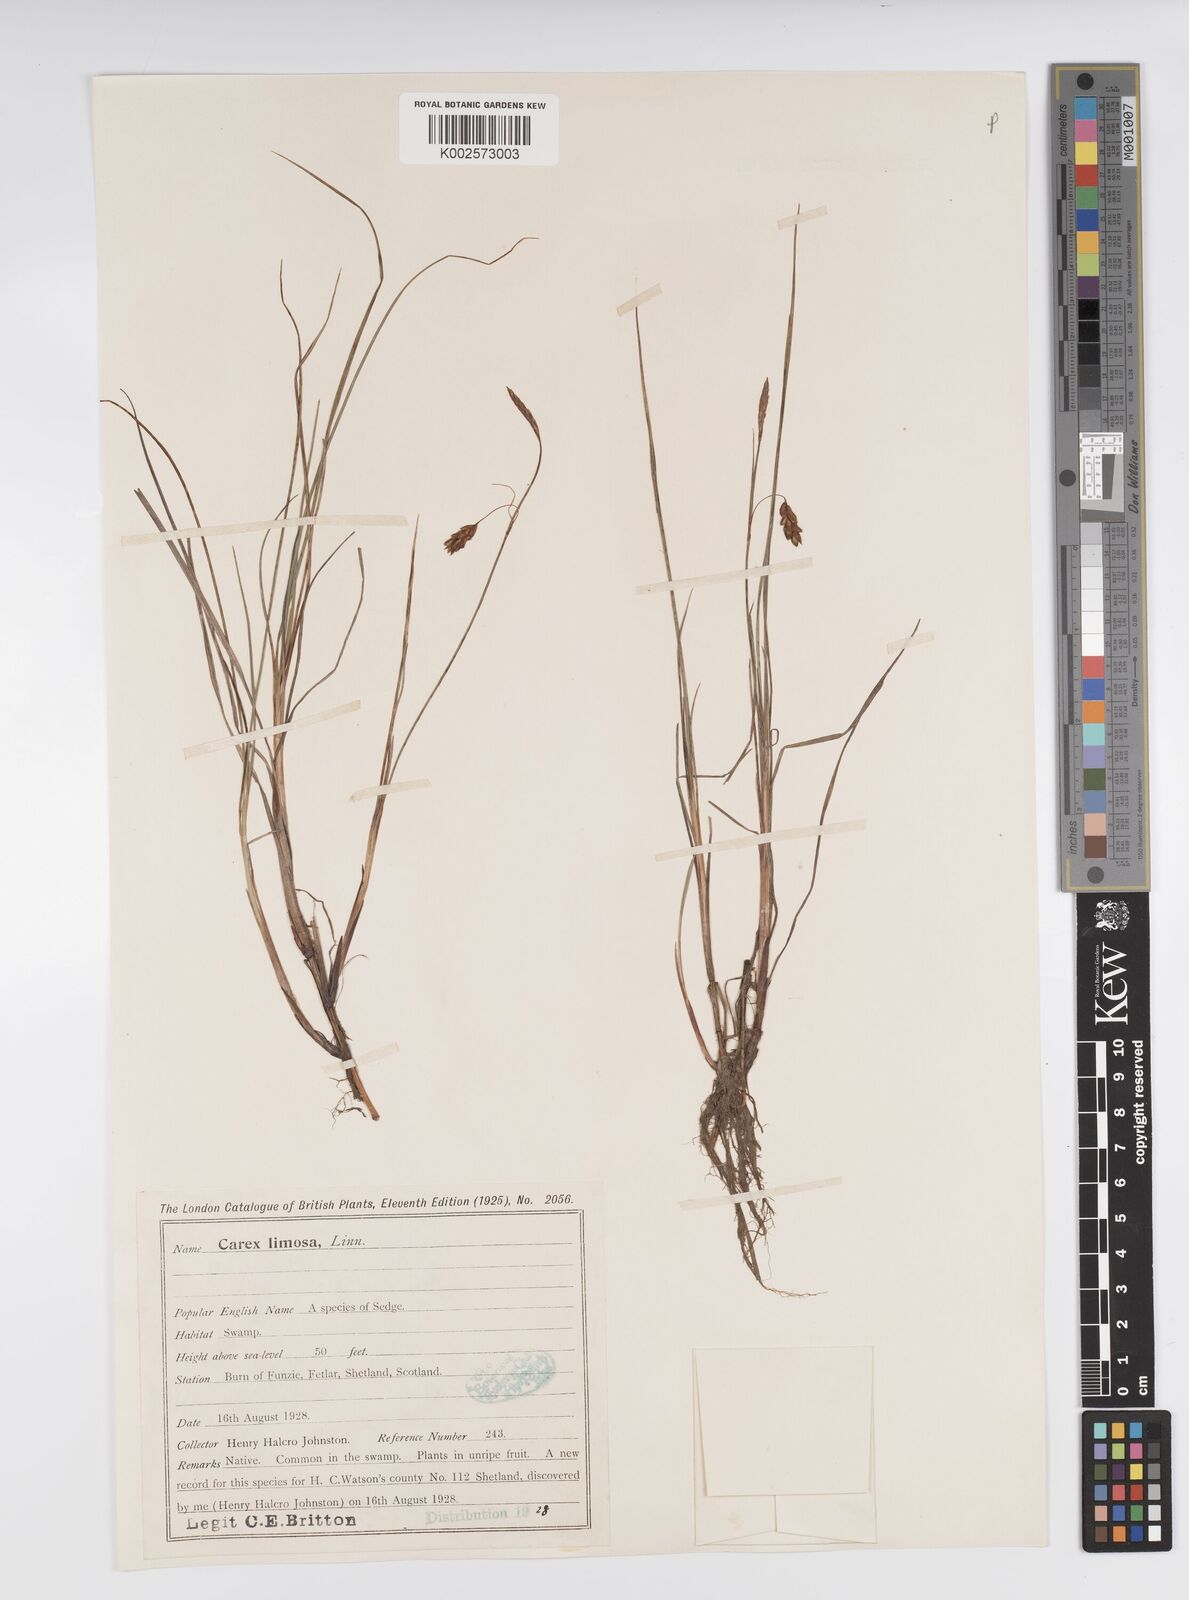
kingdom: Plantae
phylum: Tracheophyta
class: Liliopsida
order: Poales
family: Cyperaceae
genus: Carex
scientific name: Carex limosa
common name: Bog sedge
